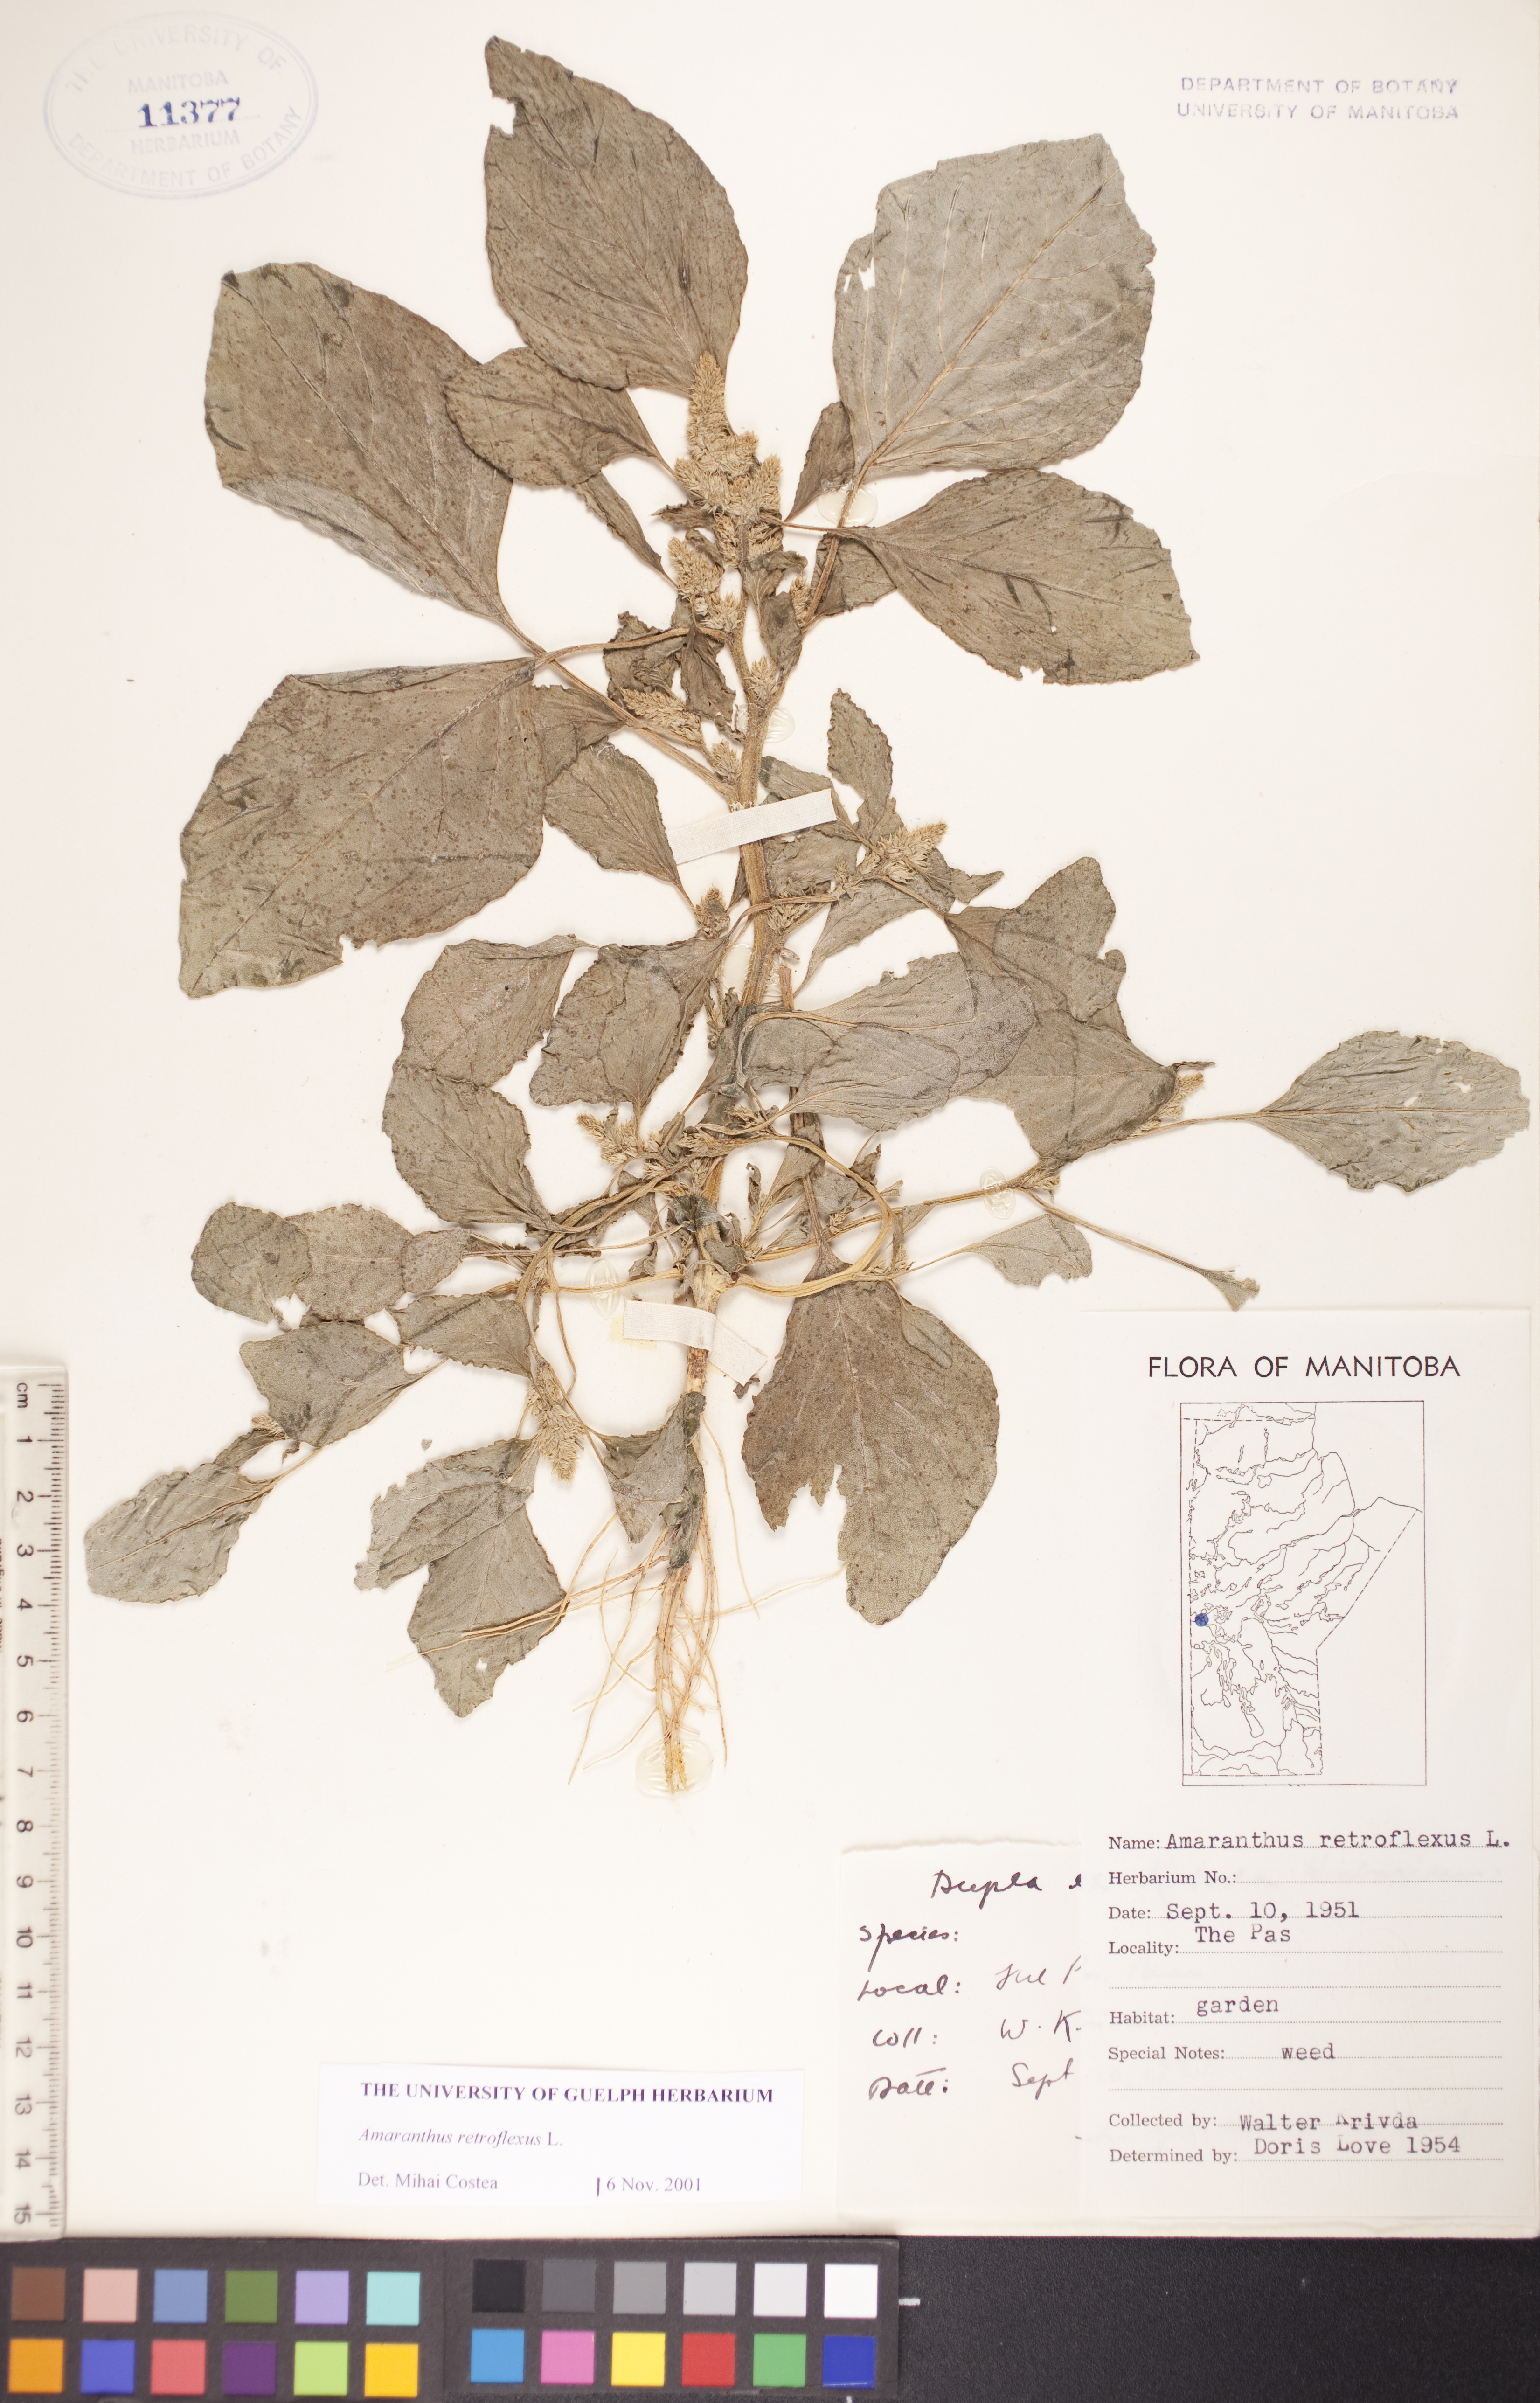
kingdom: Plantae
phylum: Tracheophyta
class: Magnoliopsida
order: Caryophyllales
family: Amaranthaceae
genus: Amaranthus
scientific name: Amaranthus retroflexus
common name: Redroot amaranth
